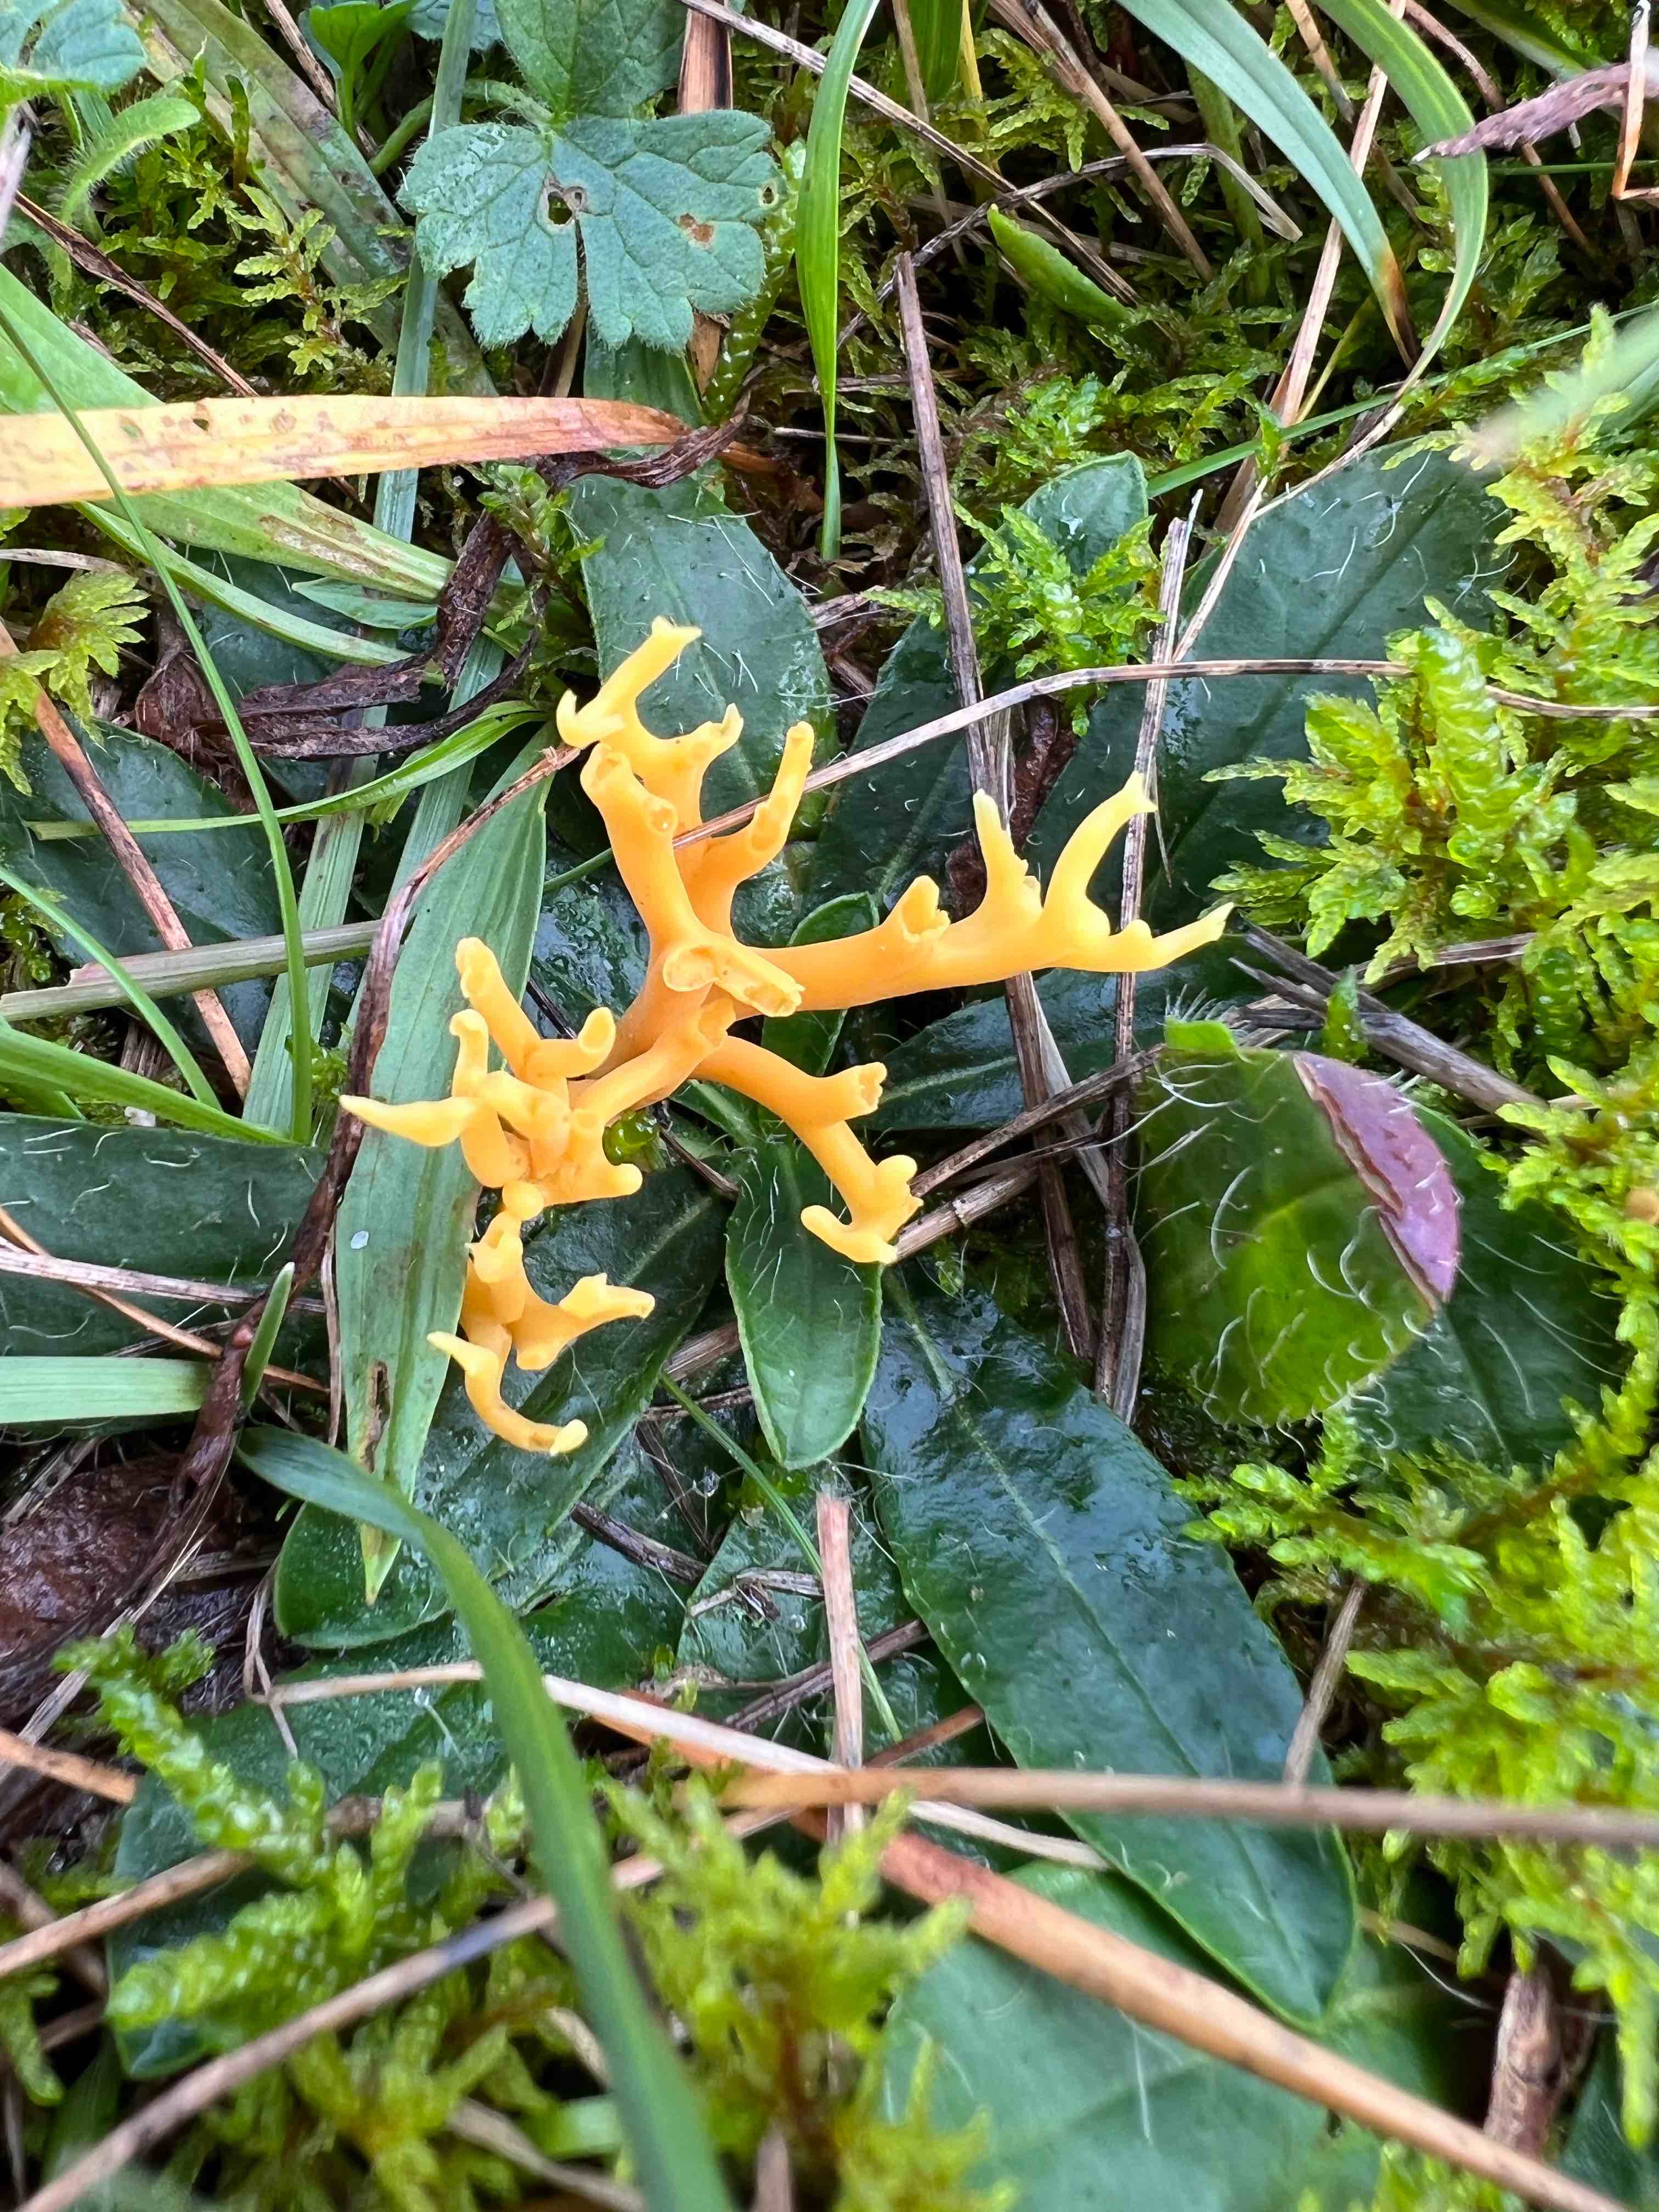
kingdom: Fungi
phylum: Basidiomycota
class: Agaricomycetes
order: Agaricales
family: Clavariaceae
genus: Clavulinopsis
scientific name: Clavulinopsis corniculata
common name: eng-køllesvamp
